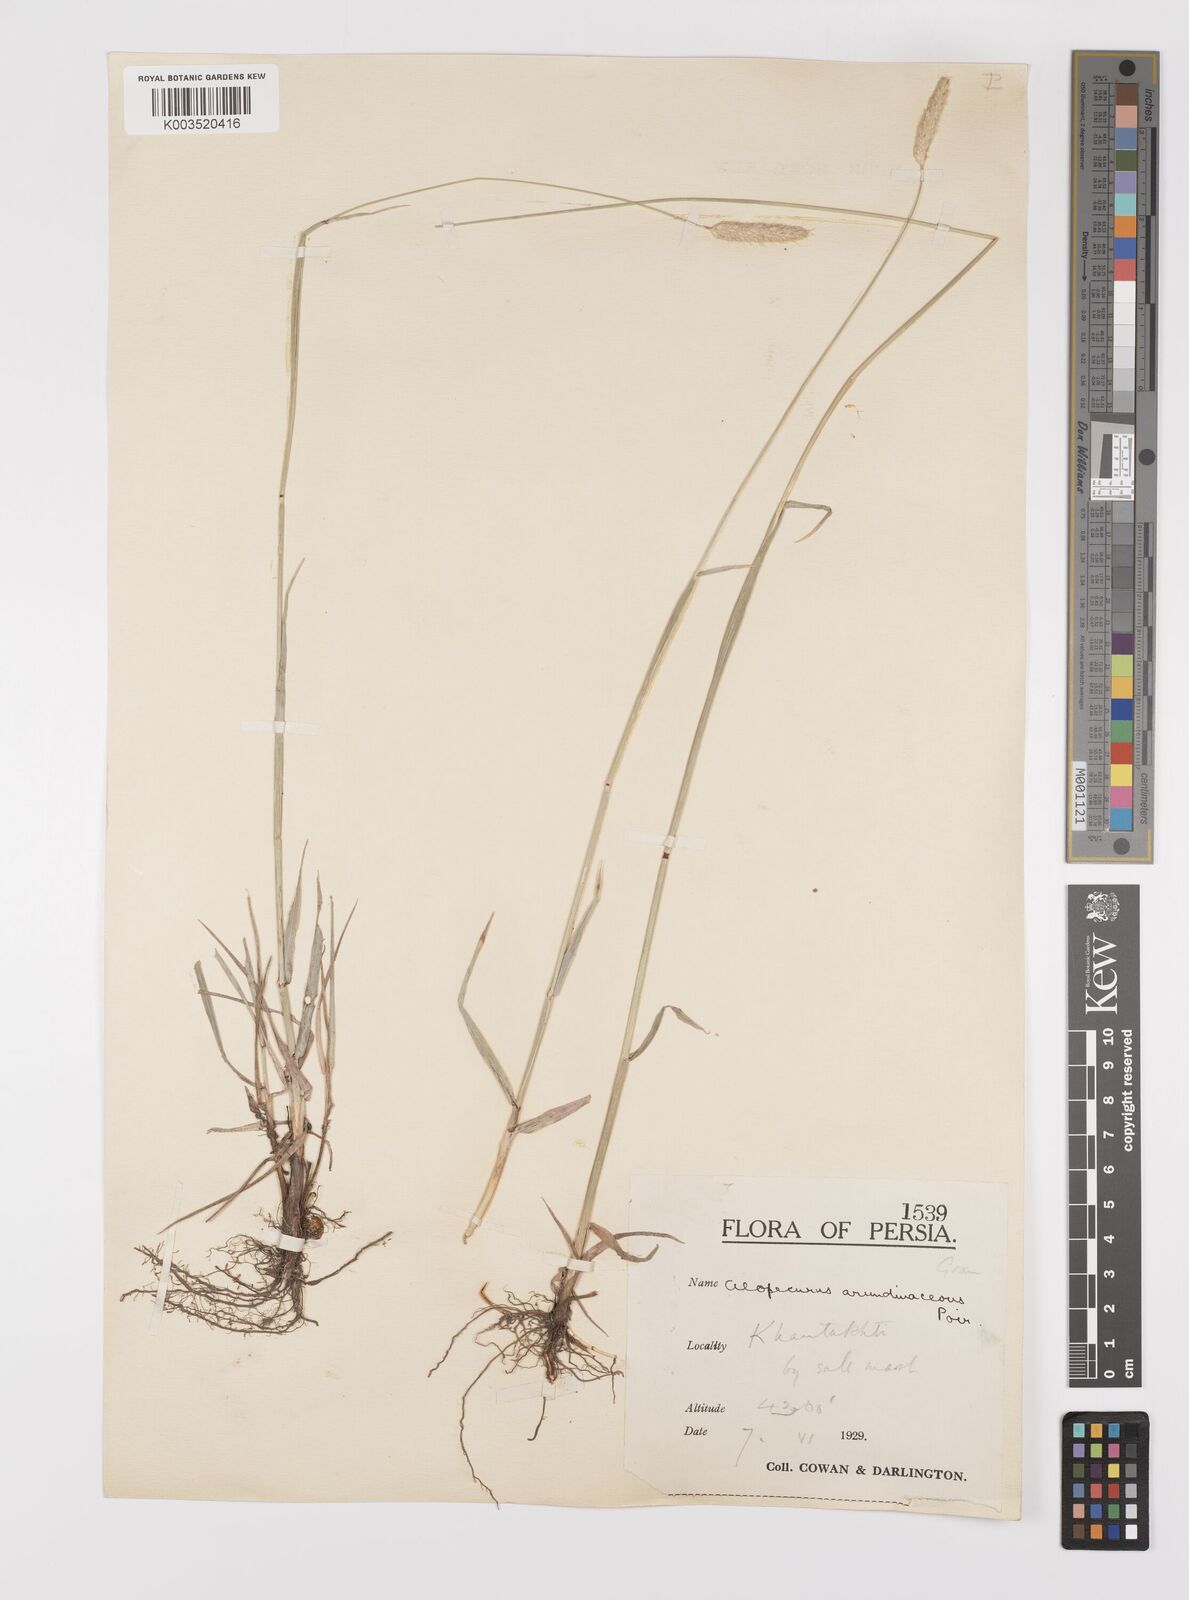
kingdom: Plantae
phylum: Tracheophyta
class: Liliopsida
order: Poales
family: Poaceae
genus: Alopecurus
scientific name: Alopecurus arundinaceus
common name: Creeping meadow foxtail
